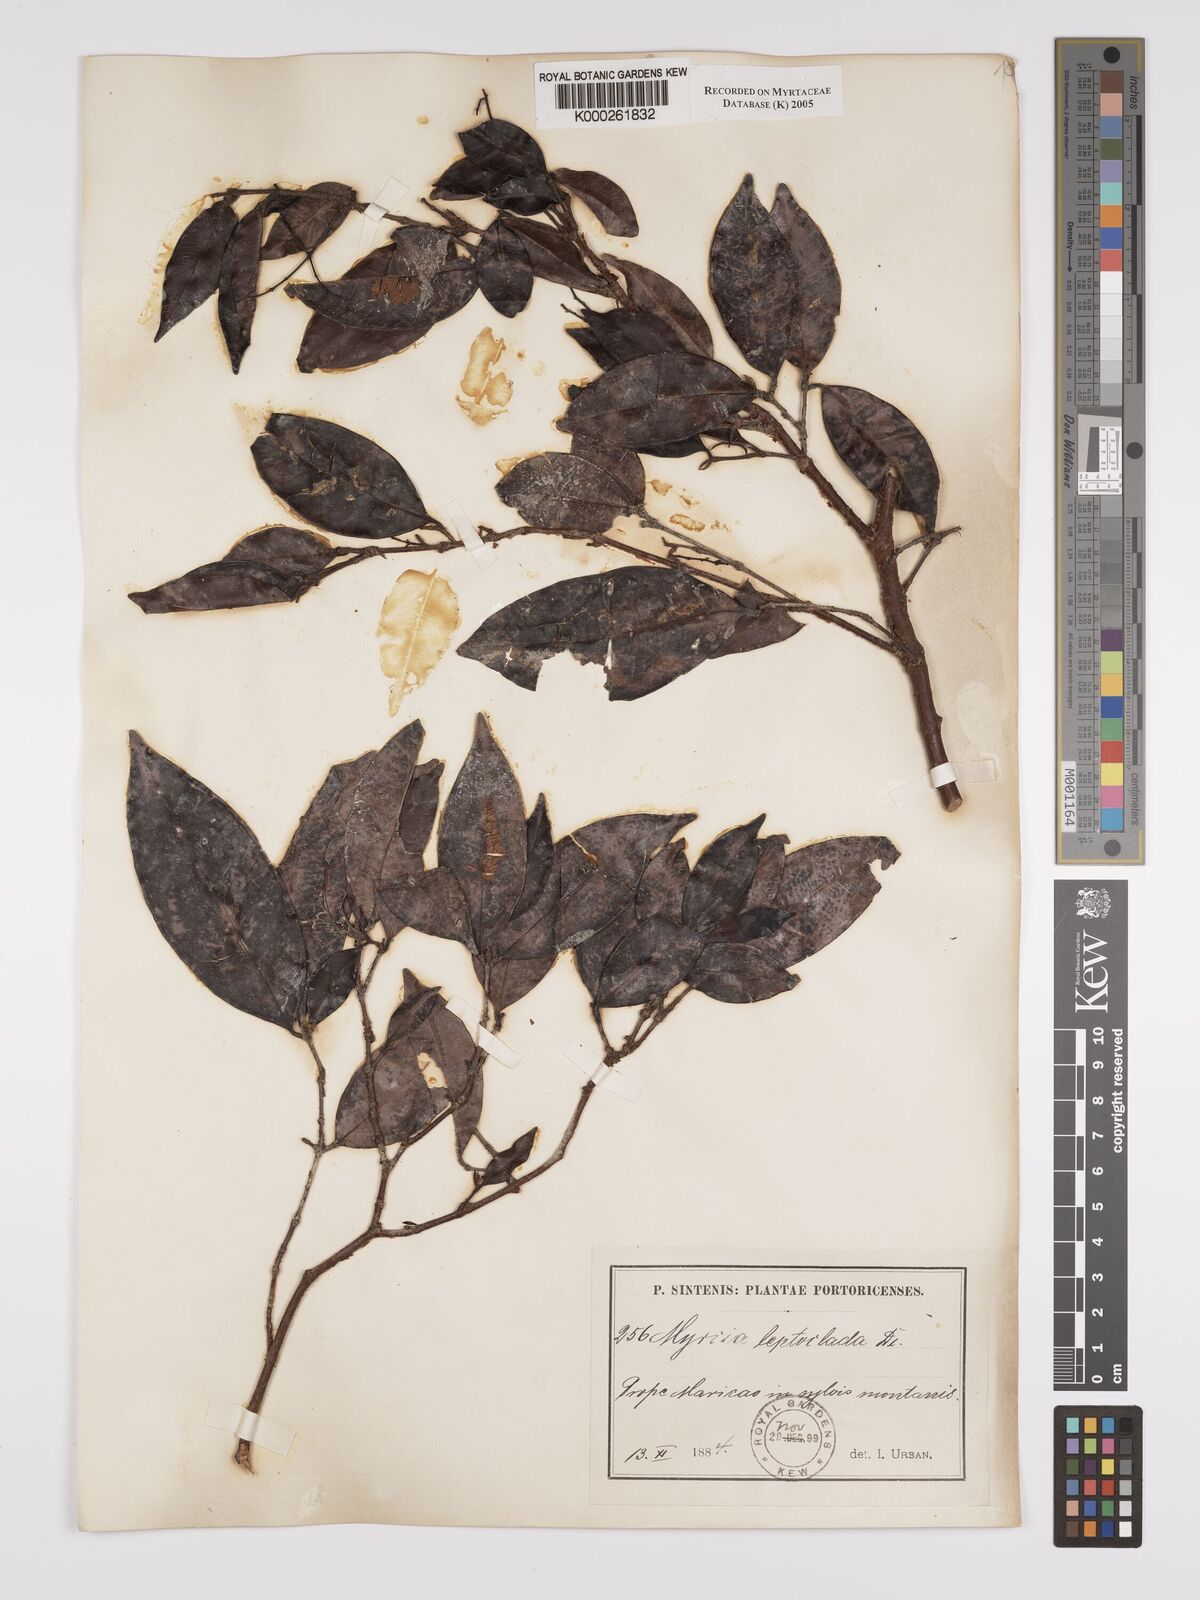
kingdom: Plantae
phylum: Tracheophyta
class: Magnoliopsida
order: Myrtales
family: Myrtaceae
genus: Myrcia
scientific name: Myrcia amazonica
